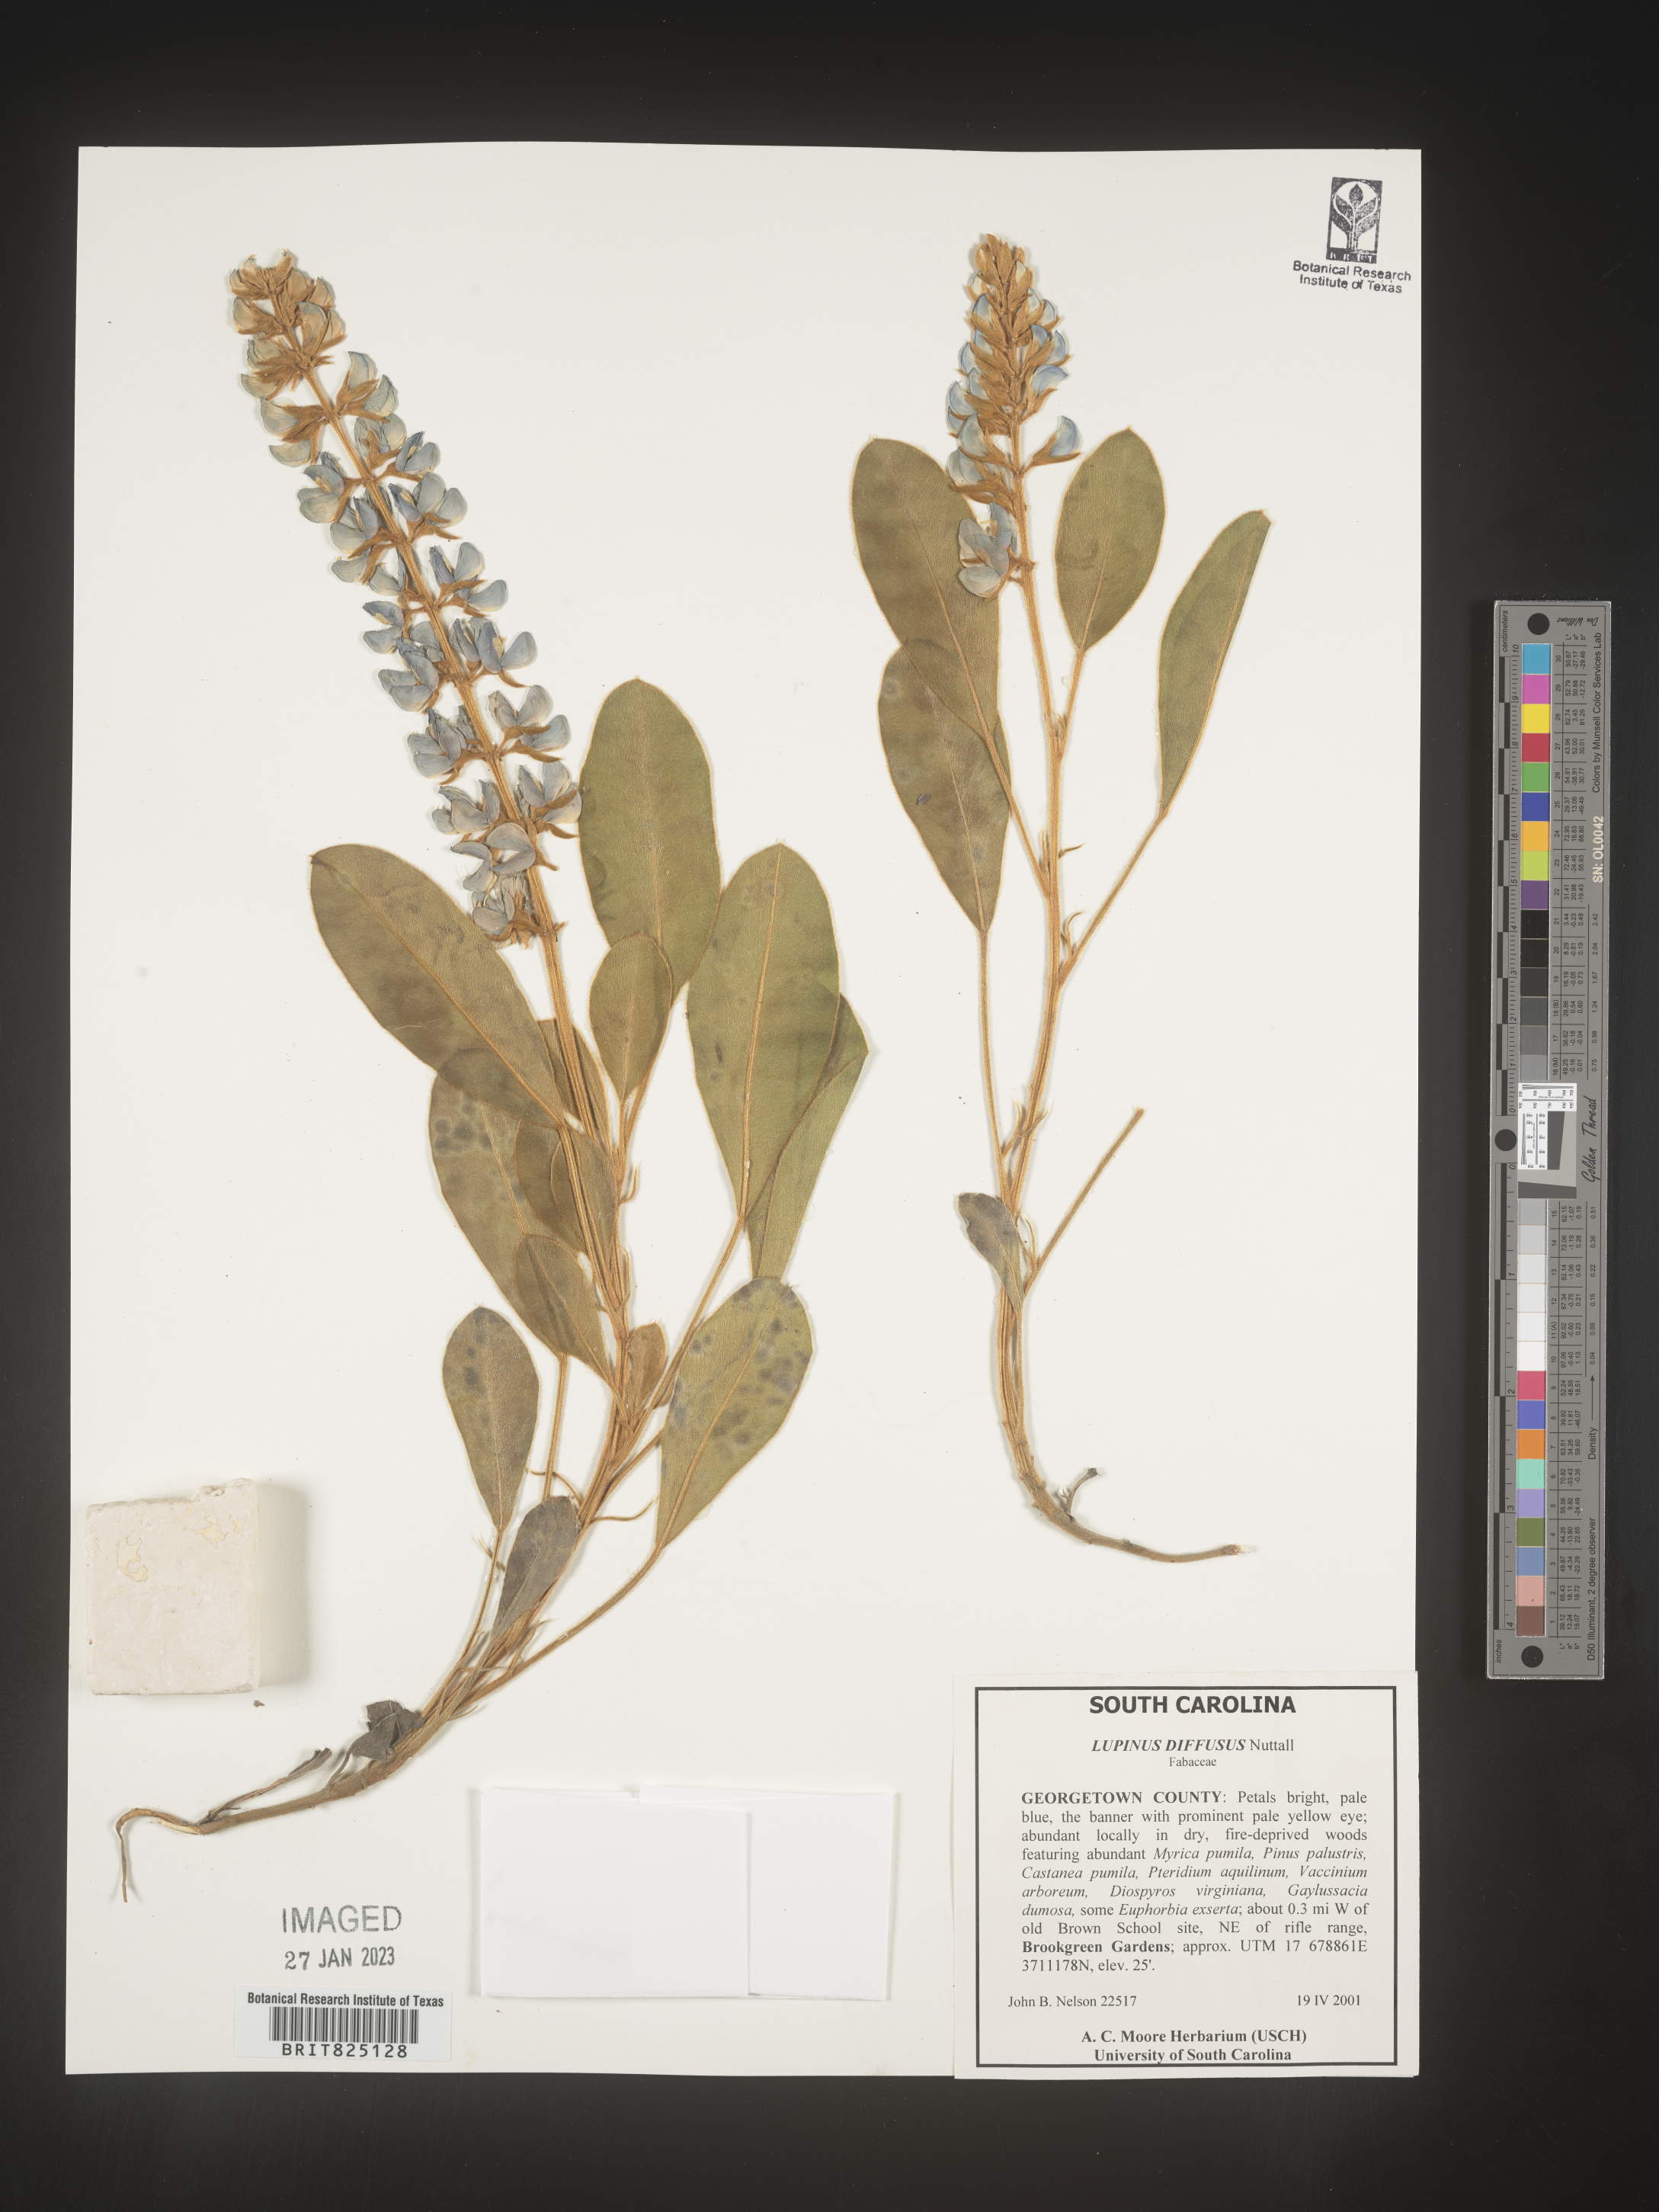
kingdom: Plantae
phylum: Tracheophyta
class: Magnoliopsida
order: Fabales
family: Fabaceae
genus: Lupinus
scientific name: Lupinus diffusus
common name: Oak ridge lupine
